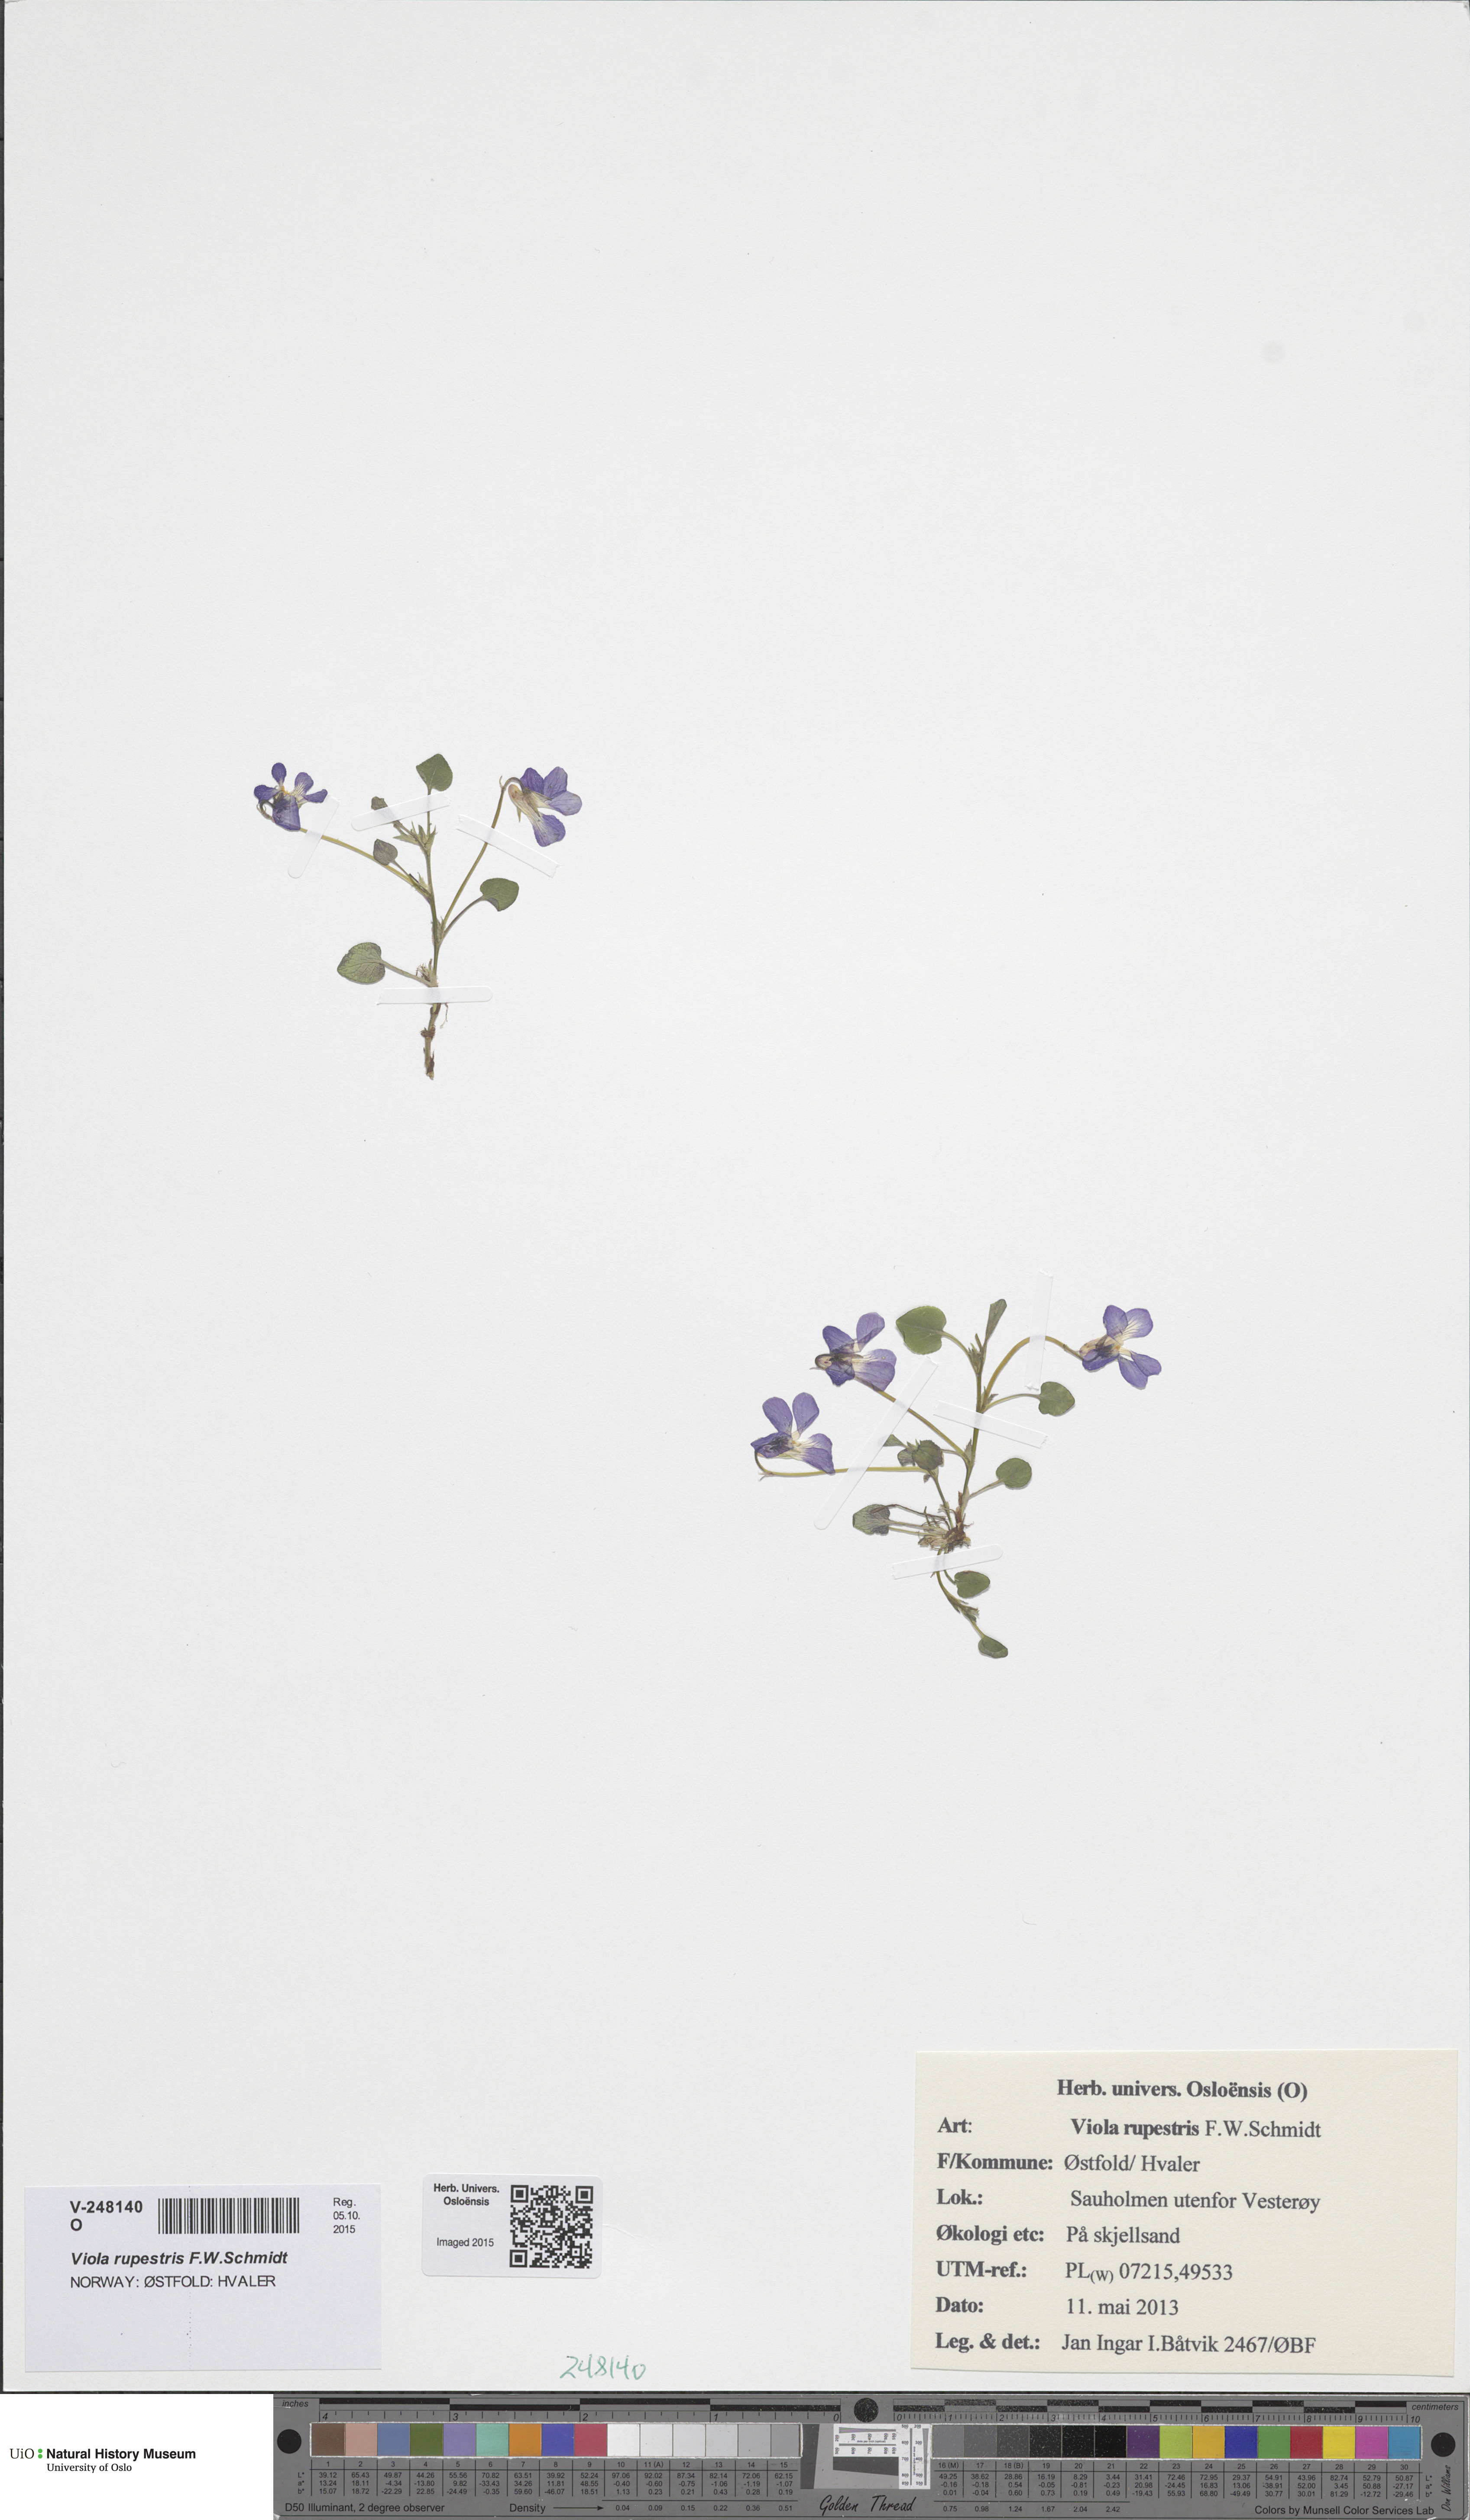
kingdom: Plantae
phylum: Tracheophyta
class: Magnoliopsida
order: Malpighiales
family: Violaceae
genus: Viola
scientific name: Viola rupestris
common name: Teesdale violet
